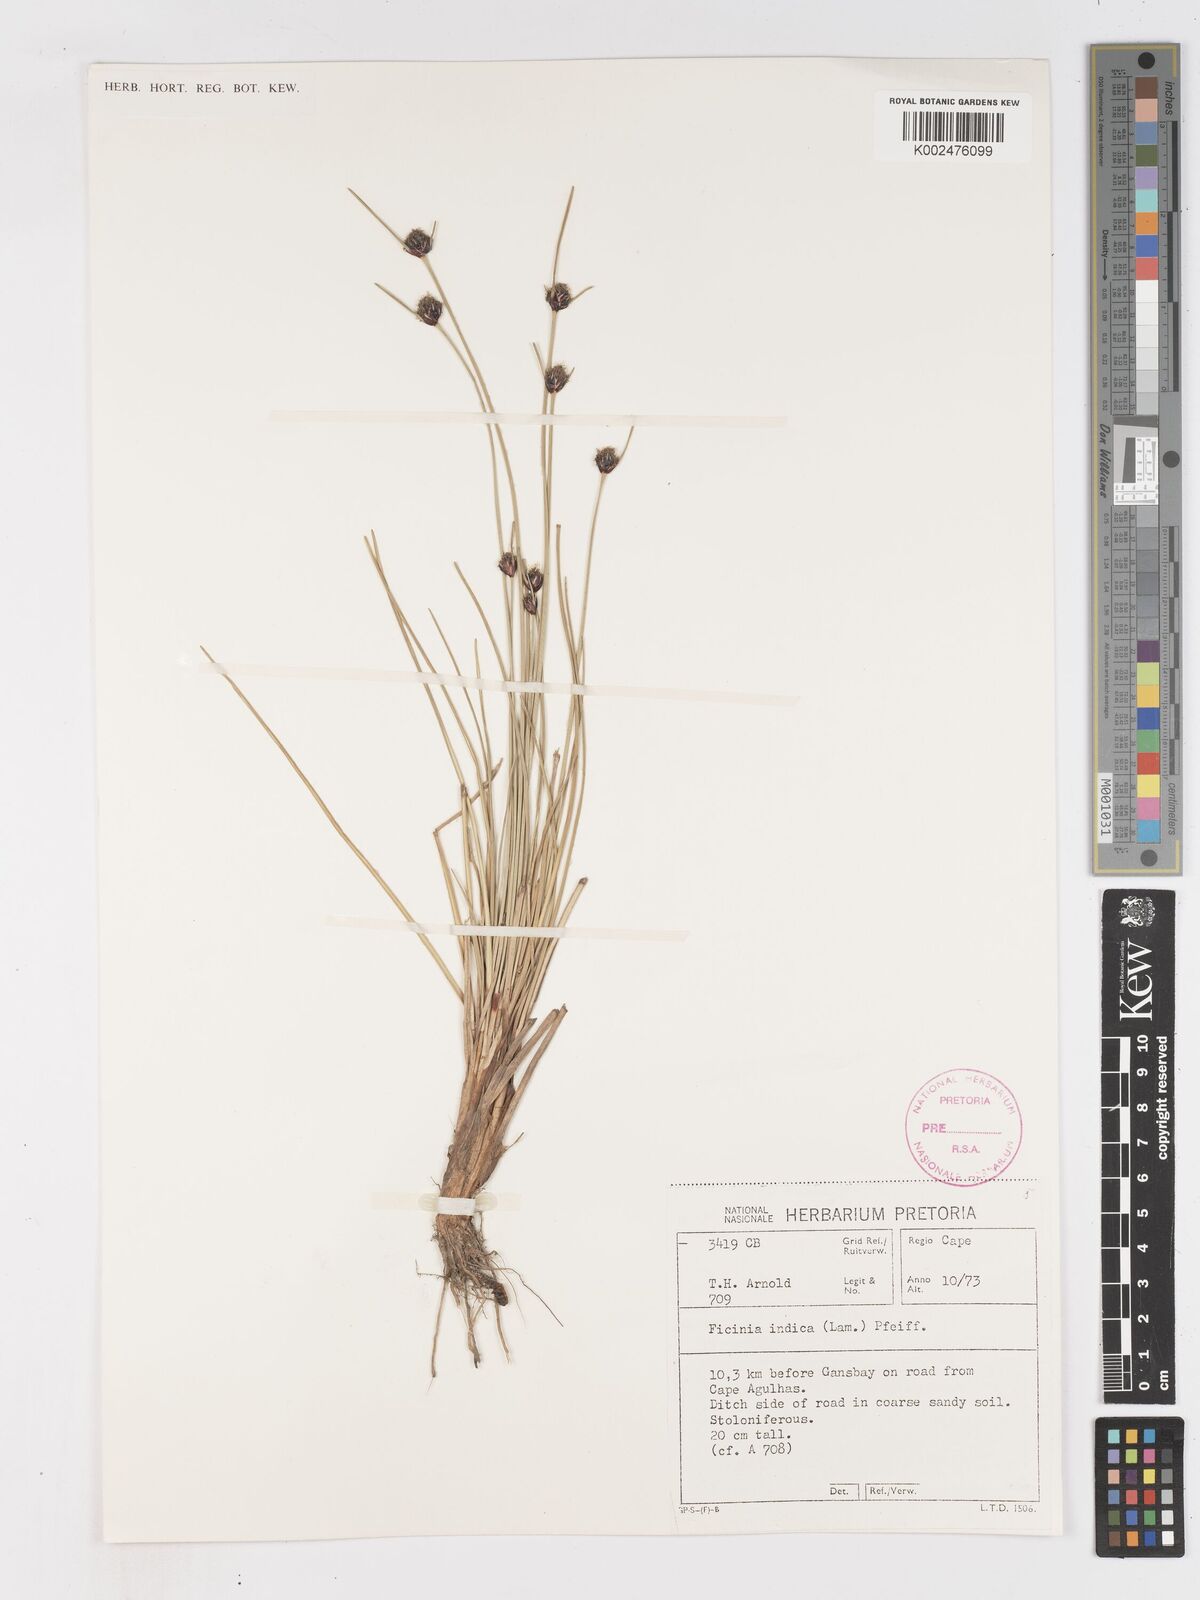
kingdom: Plantae
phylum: Tracheophyta
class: Liliopsida
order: Poales
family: Cyperaceae
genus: Ficinia
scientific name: Ficinia indica
